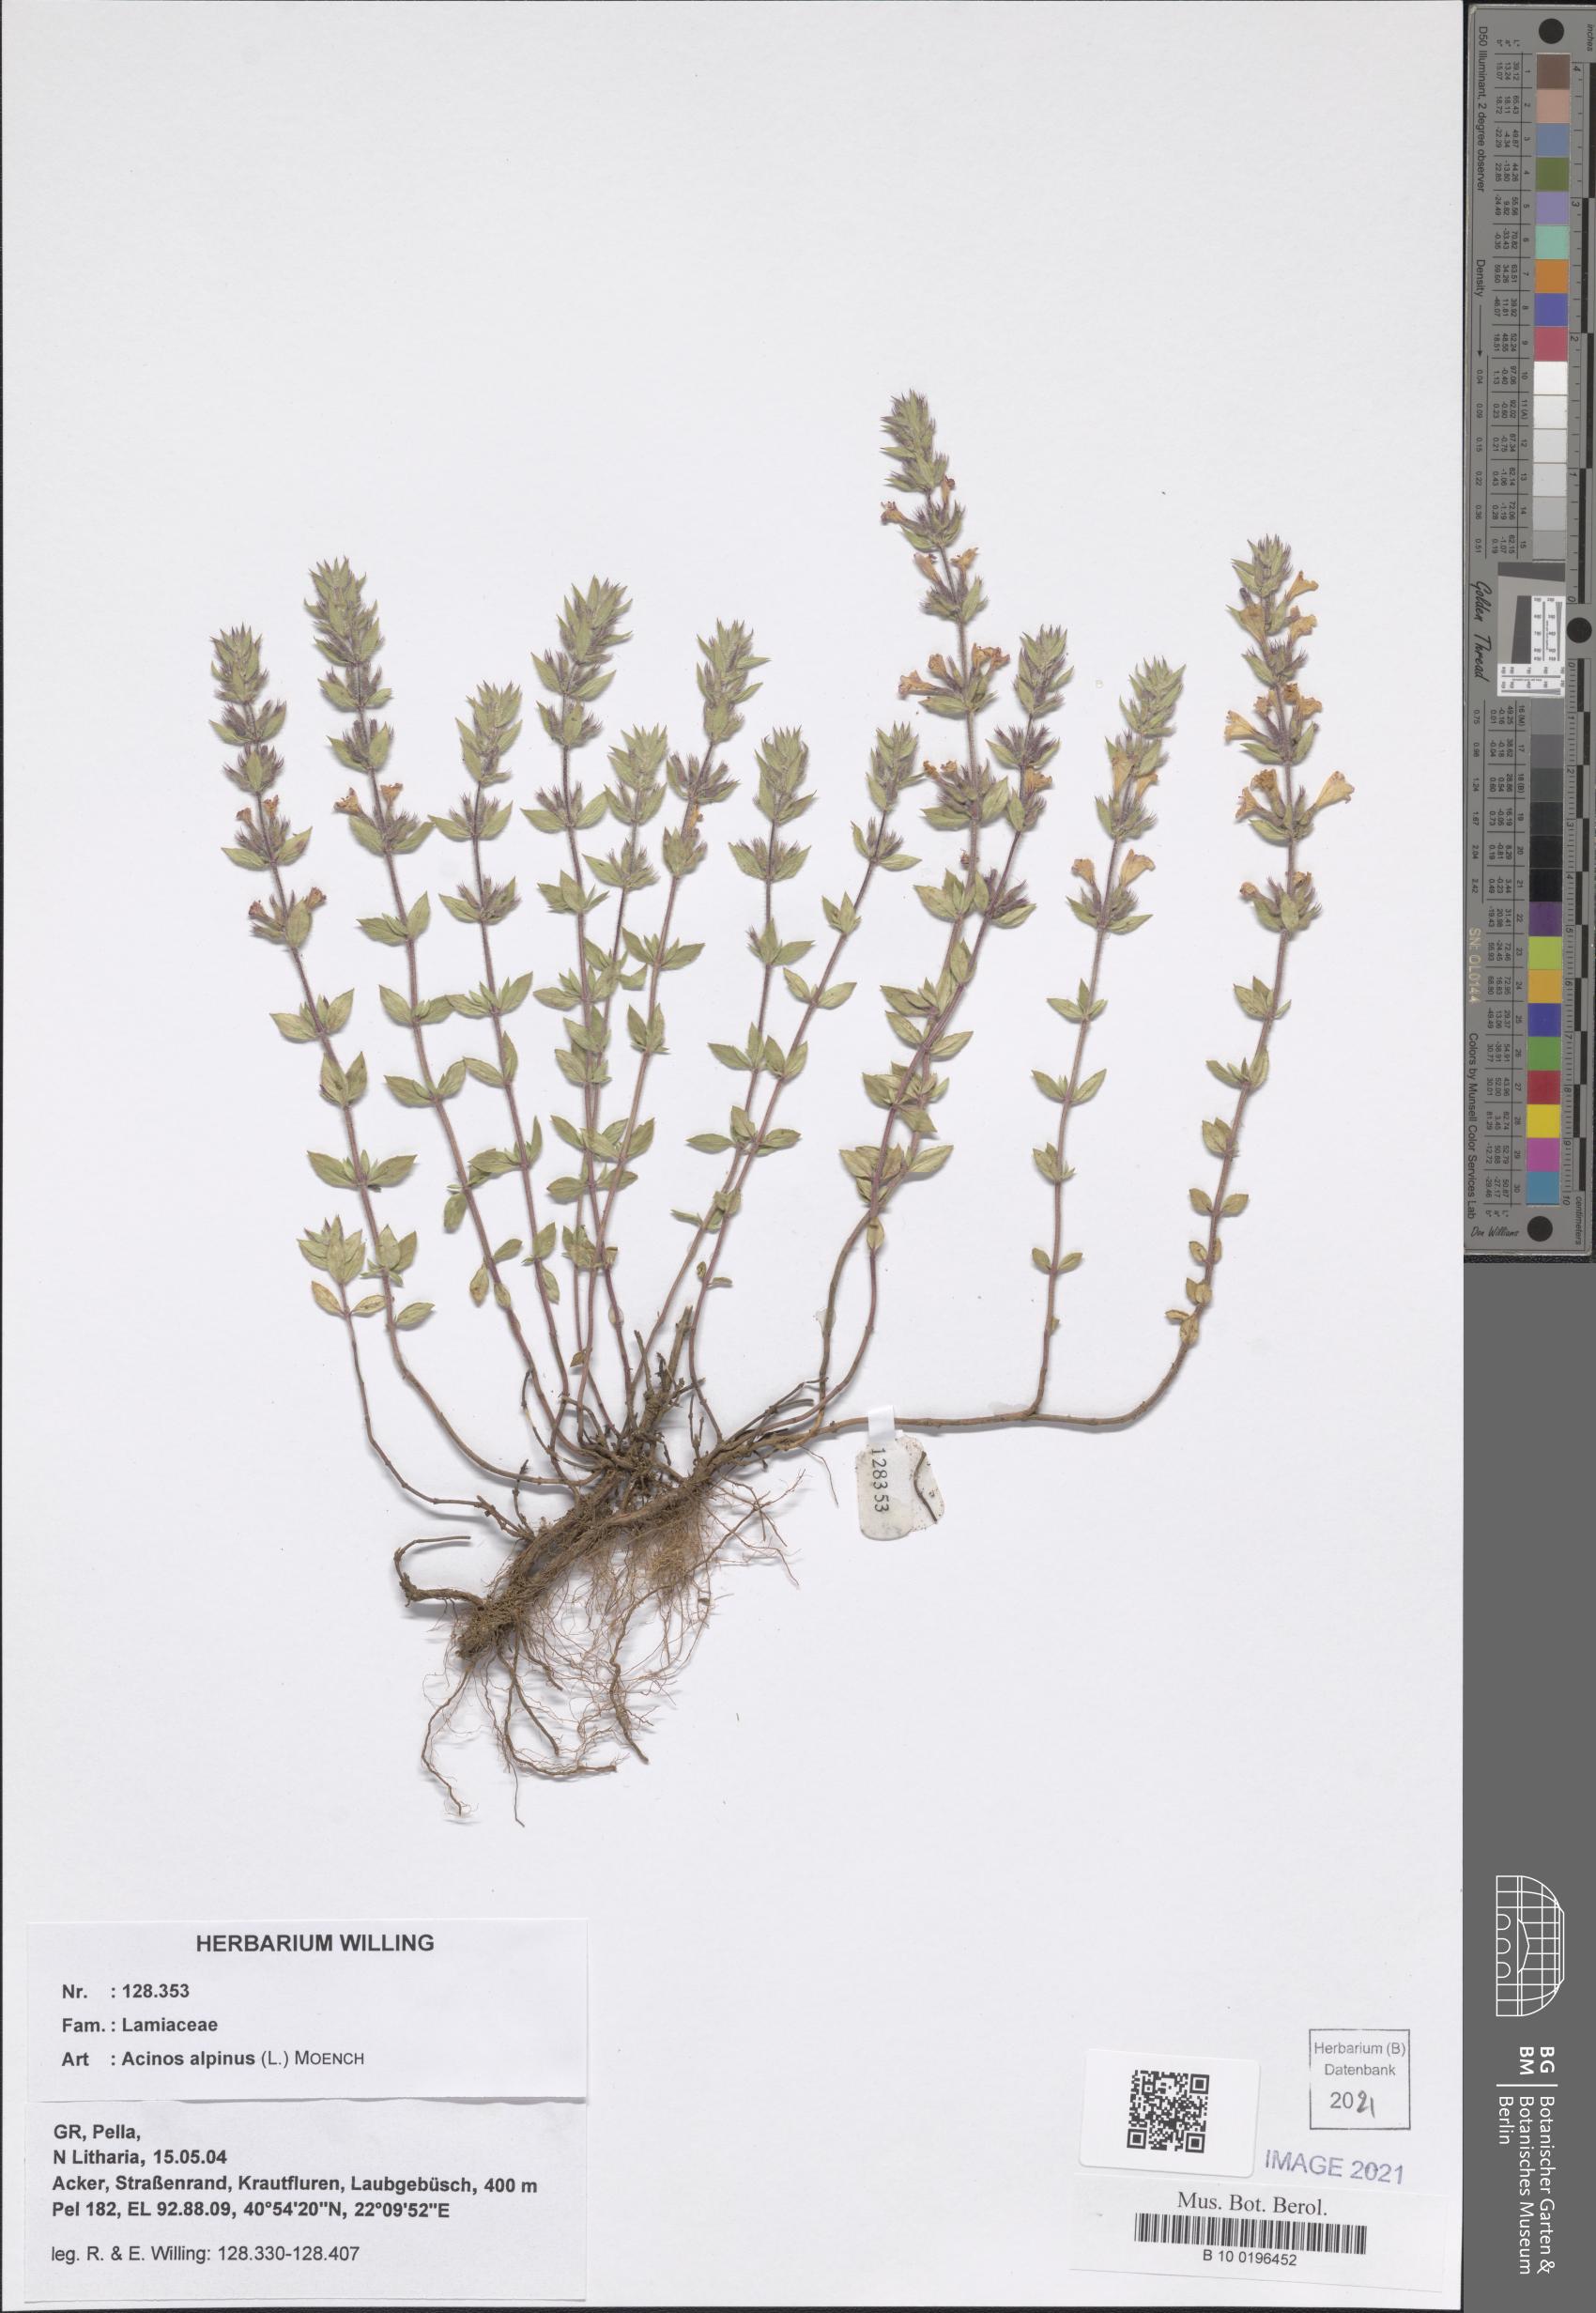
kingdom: Plantae
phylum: Tracheophyta
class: Magnoliopsida
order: Lamiales
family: Lamiaceae
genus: Clinopodium
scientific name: Clinopodium alpinum
